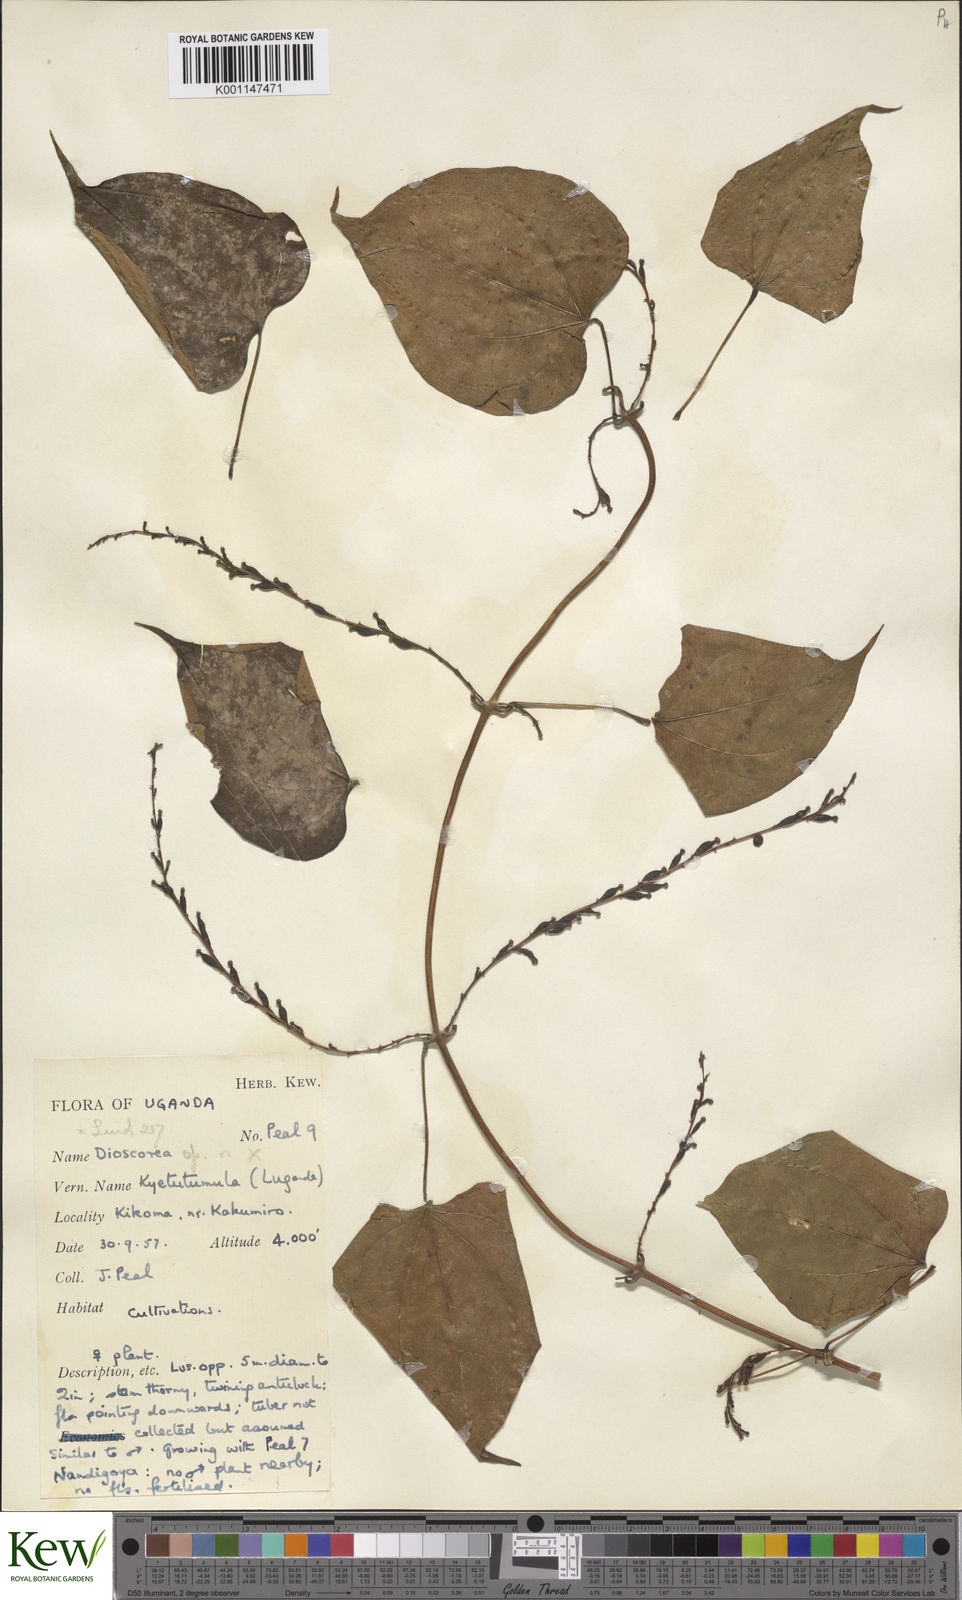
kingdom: Plantae
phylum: Tracheophyta
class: Liliopsida
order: Dioscoreales
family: Dioscoreaceae
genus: Dioscorea
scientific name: Dioscorea
